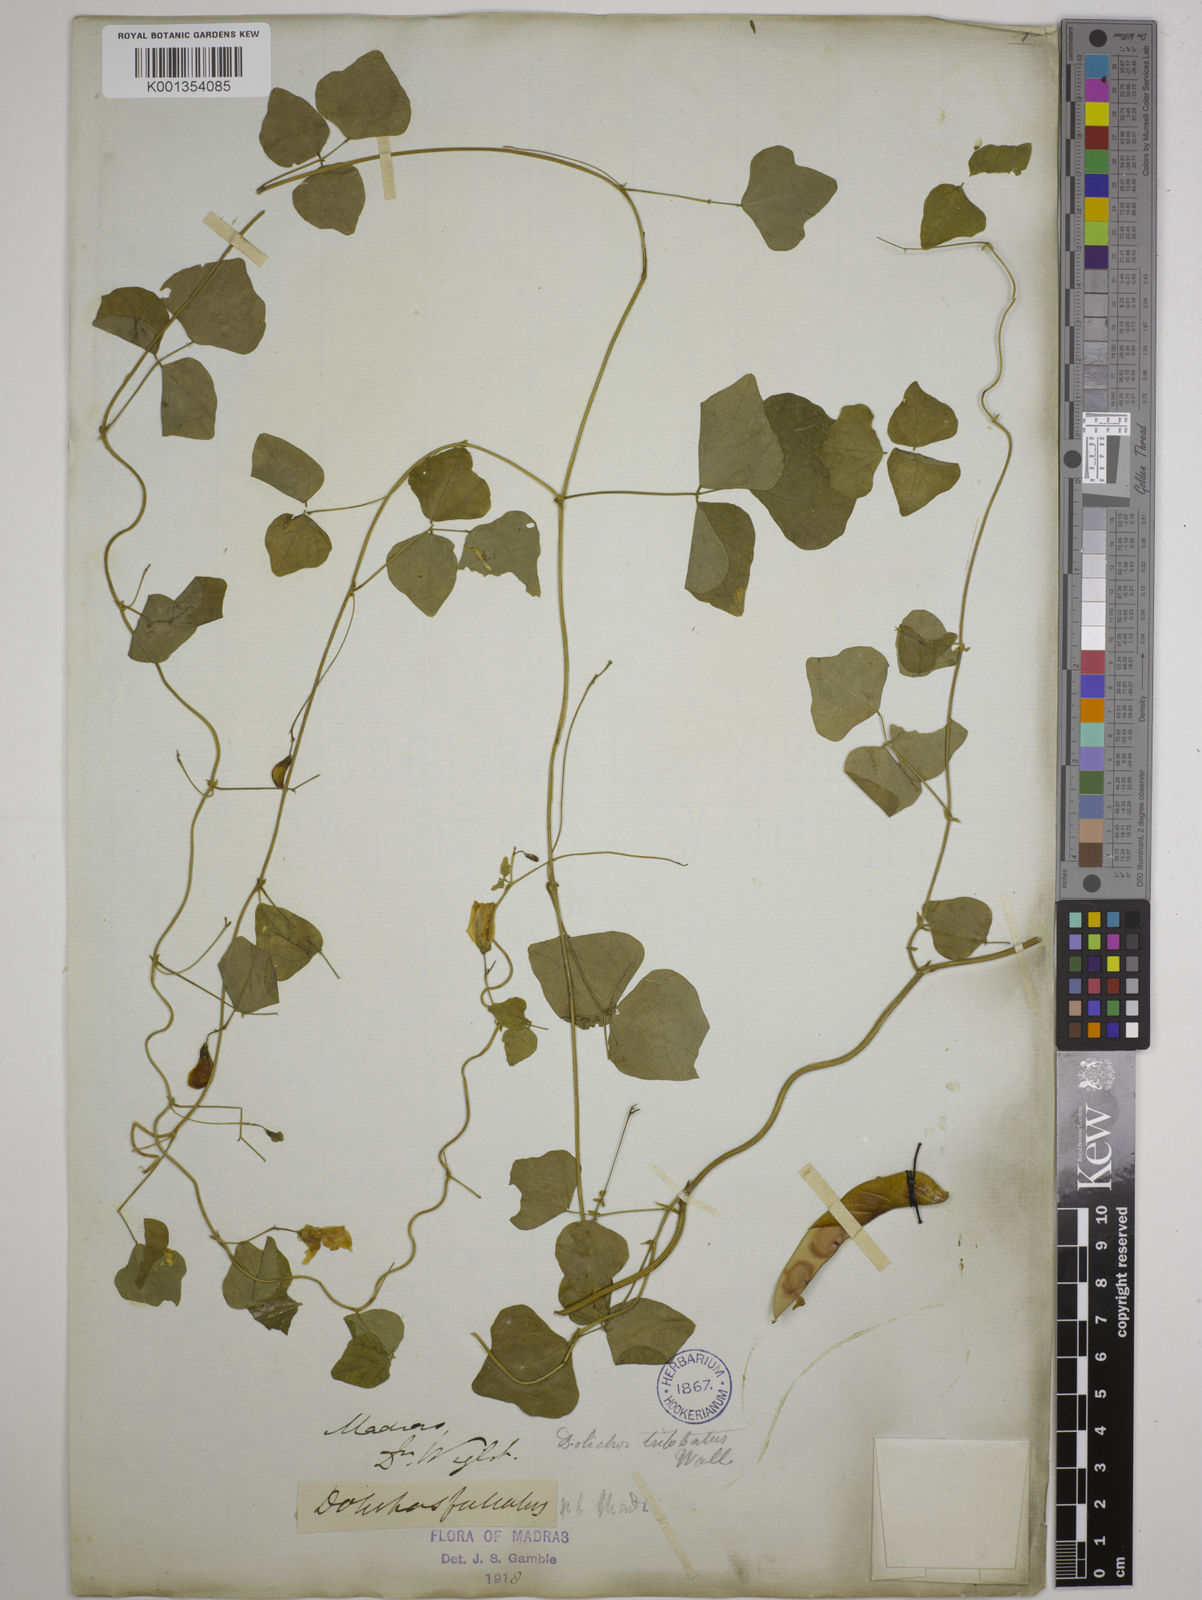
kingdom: Plantae
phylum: Tracheophyta
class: Magnoliopsida
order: Fabales
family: Fabaceae
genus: Dolichos
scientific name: Dolichos
